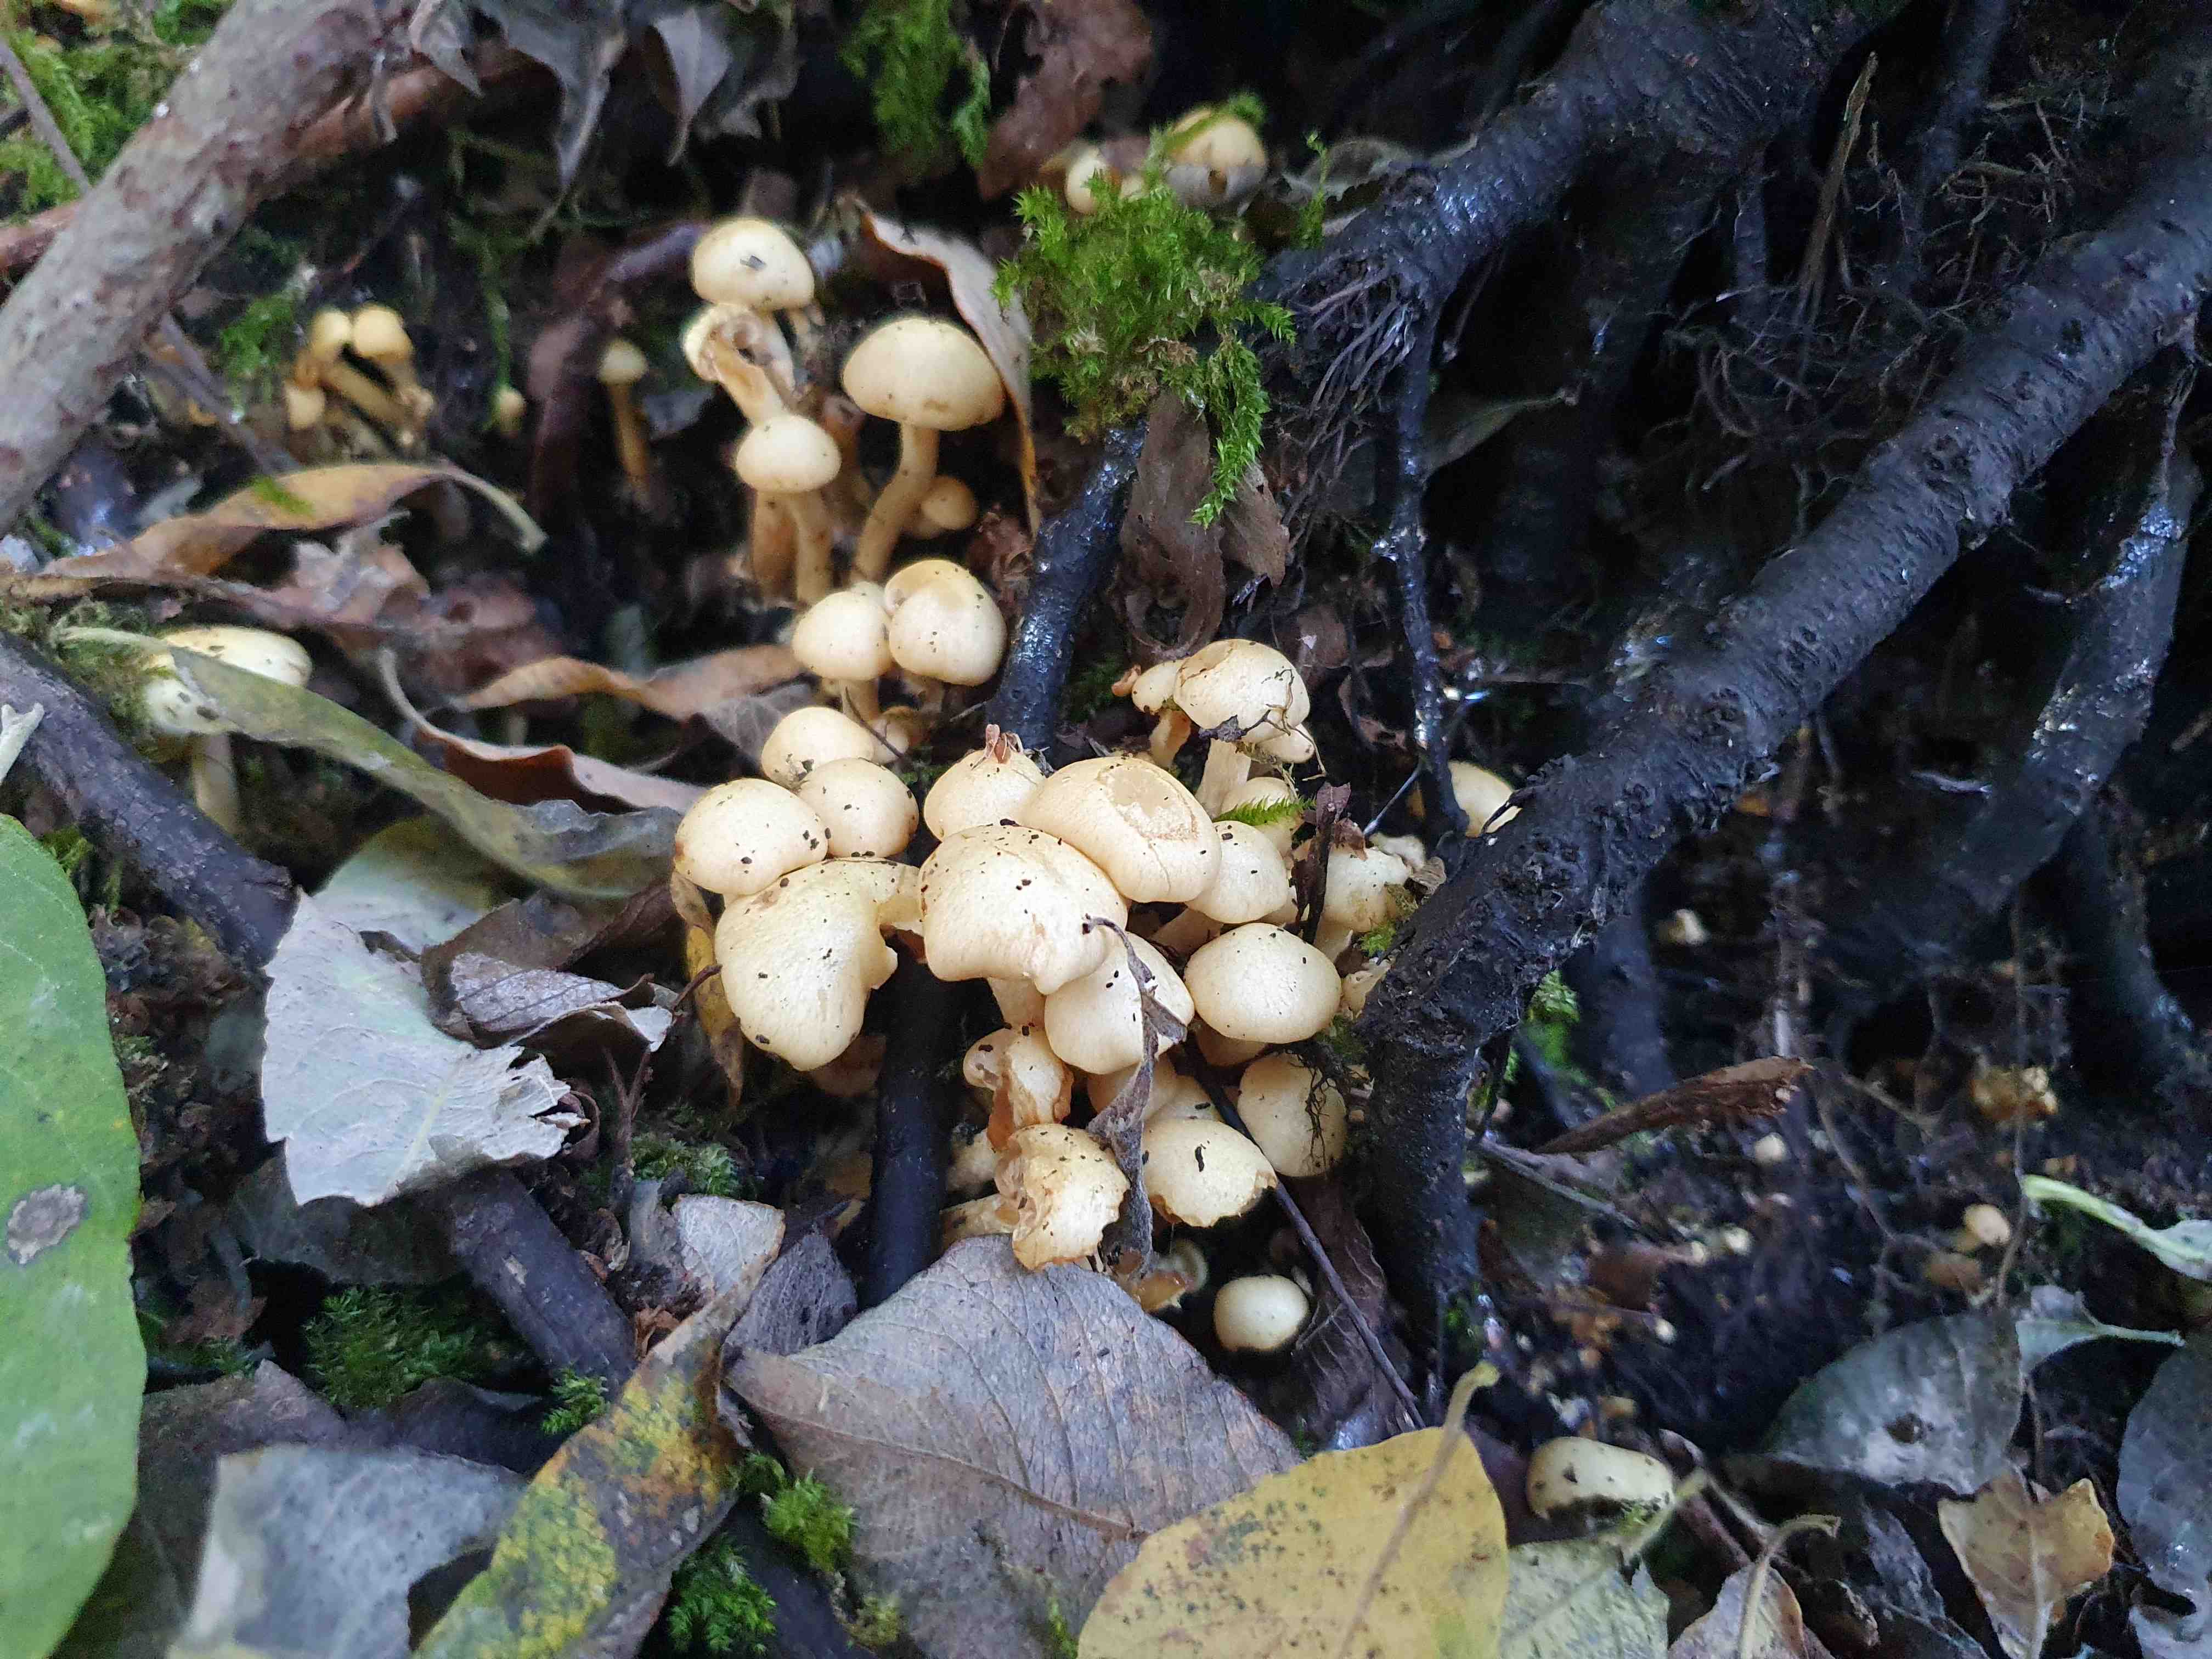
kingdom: Fungi
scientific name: Fungi
